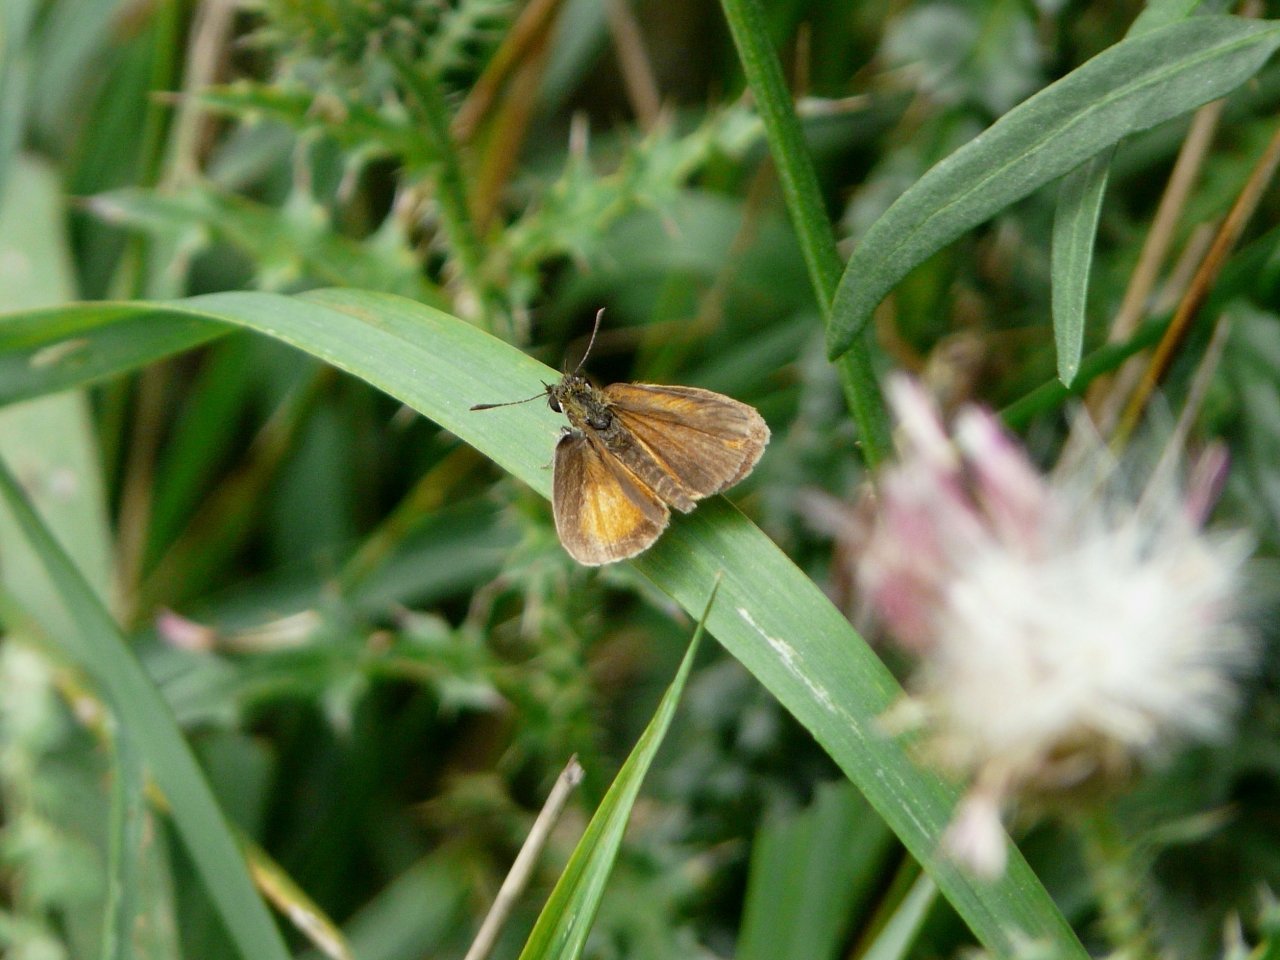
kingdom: Animalia
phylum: Arthropoda
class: Insecta
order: Lepidoptera
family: Hesperiidae
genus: Ancyloxypha
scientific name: Ancyloxypha numitor
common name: Least Skipper
